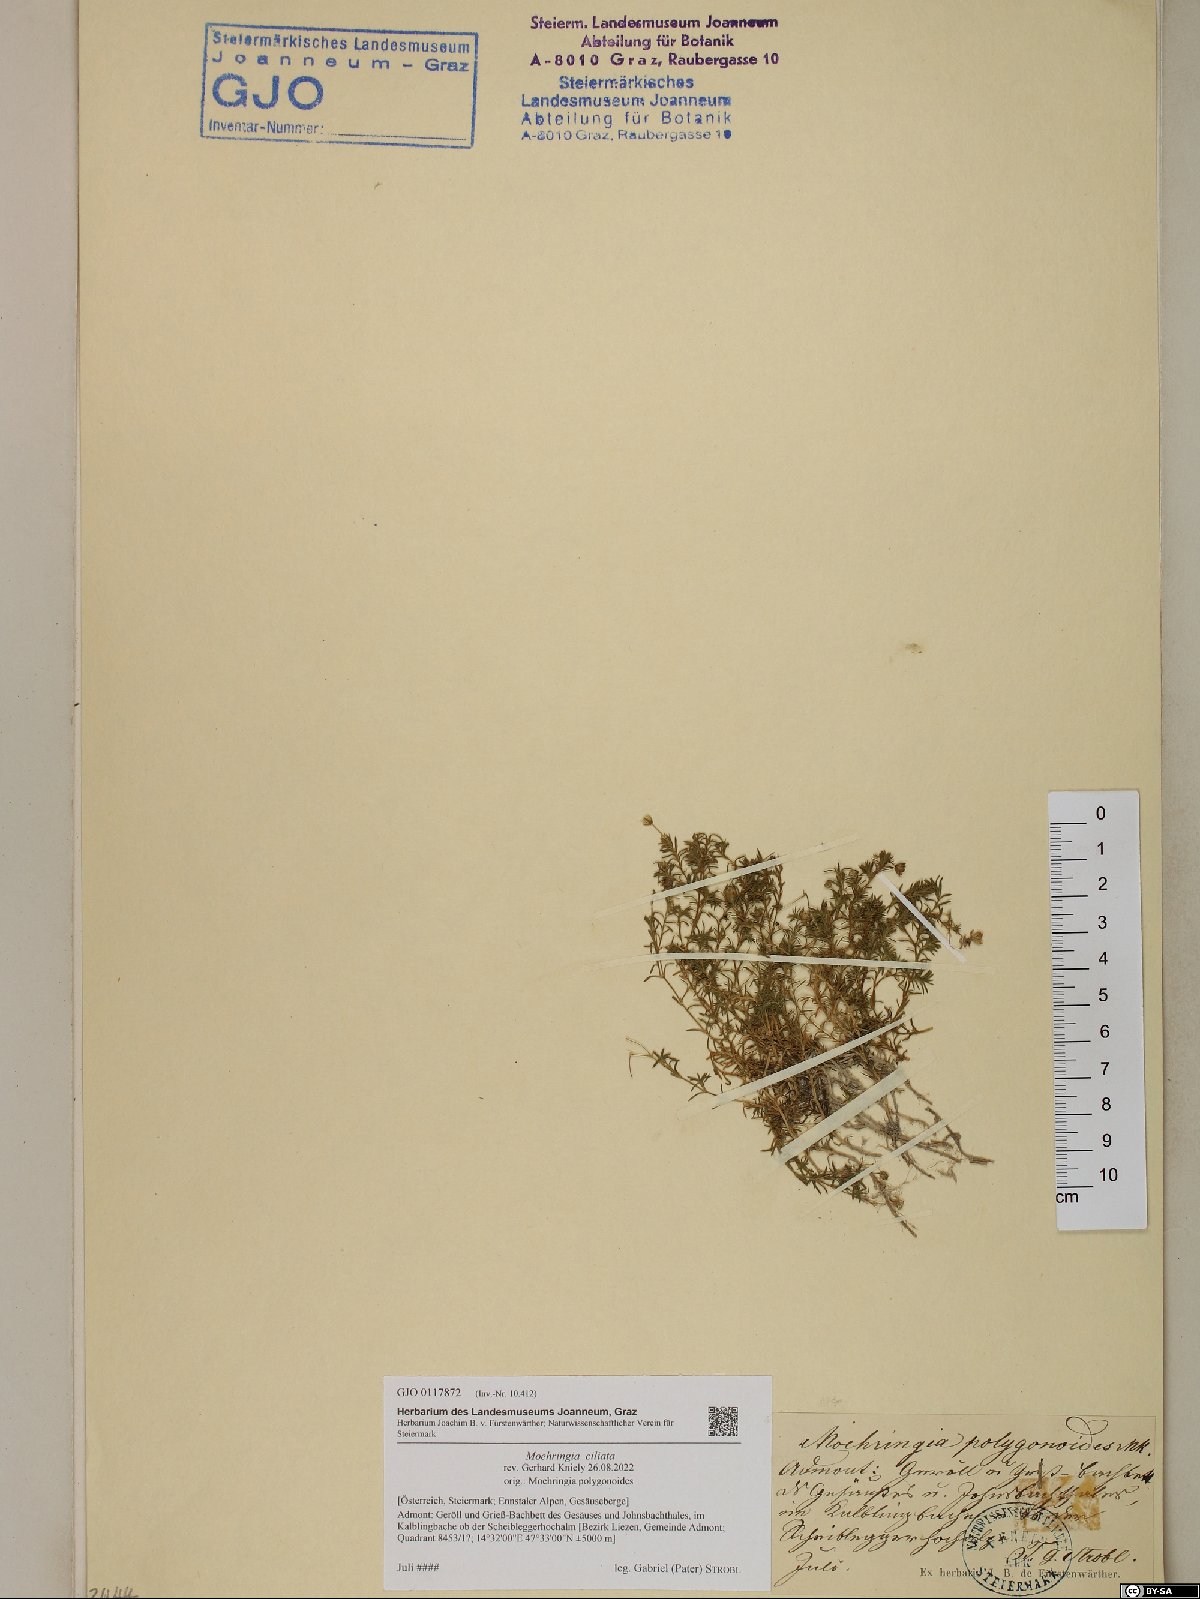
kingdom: Plantae
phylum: Tracheophyta
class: Magnoliopsida
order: Caryophyllales
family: Caryophyllaceae
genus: Moehringia
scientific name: Moehringia ciliata
